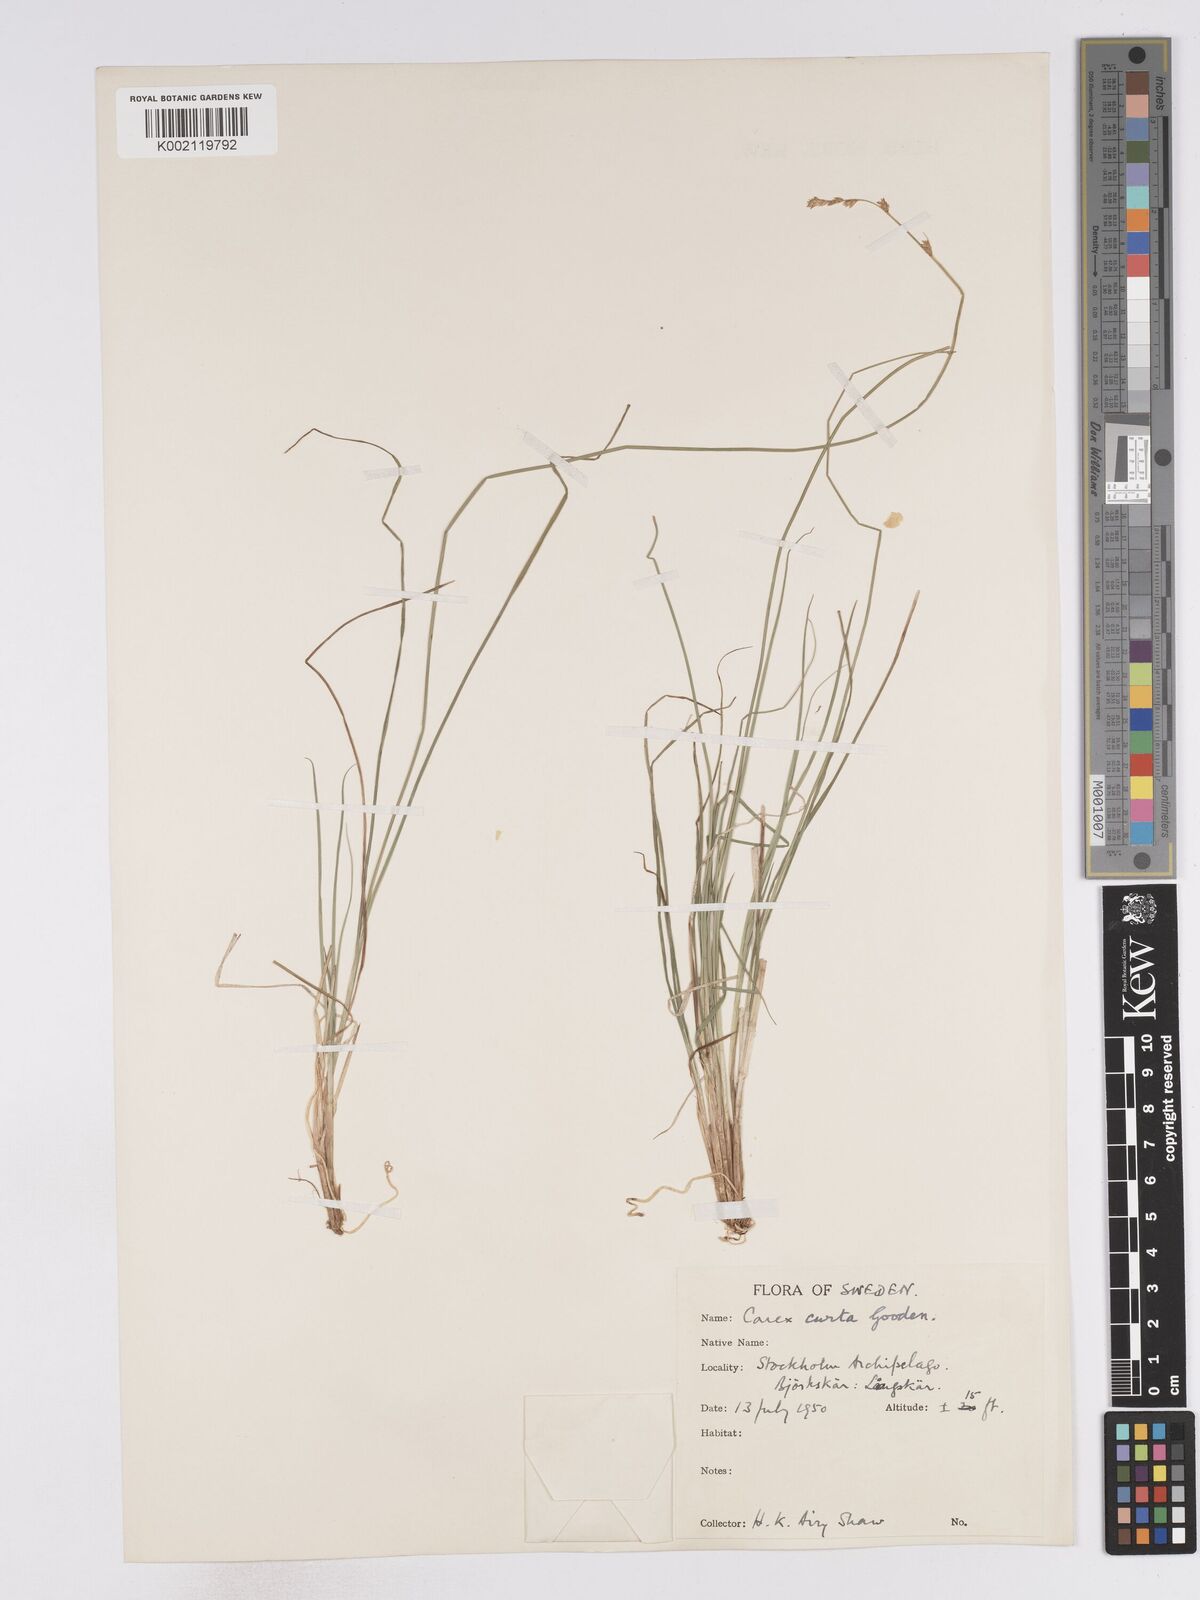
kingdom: Plantae
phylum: Tracheophyta
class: Liliopsida
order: Poales
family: Cyperaceae
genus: Carex
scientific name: Carex curta
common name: White sedge
